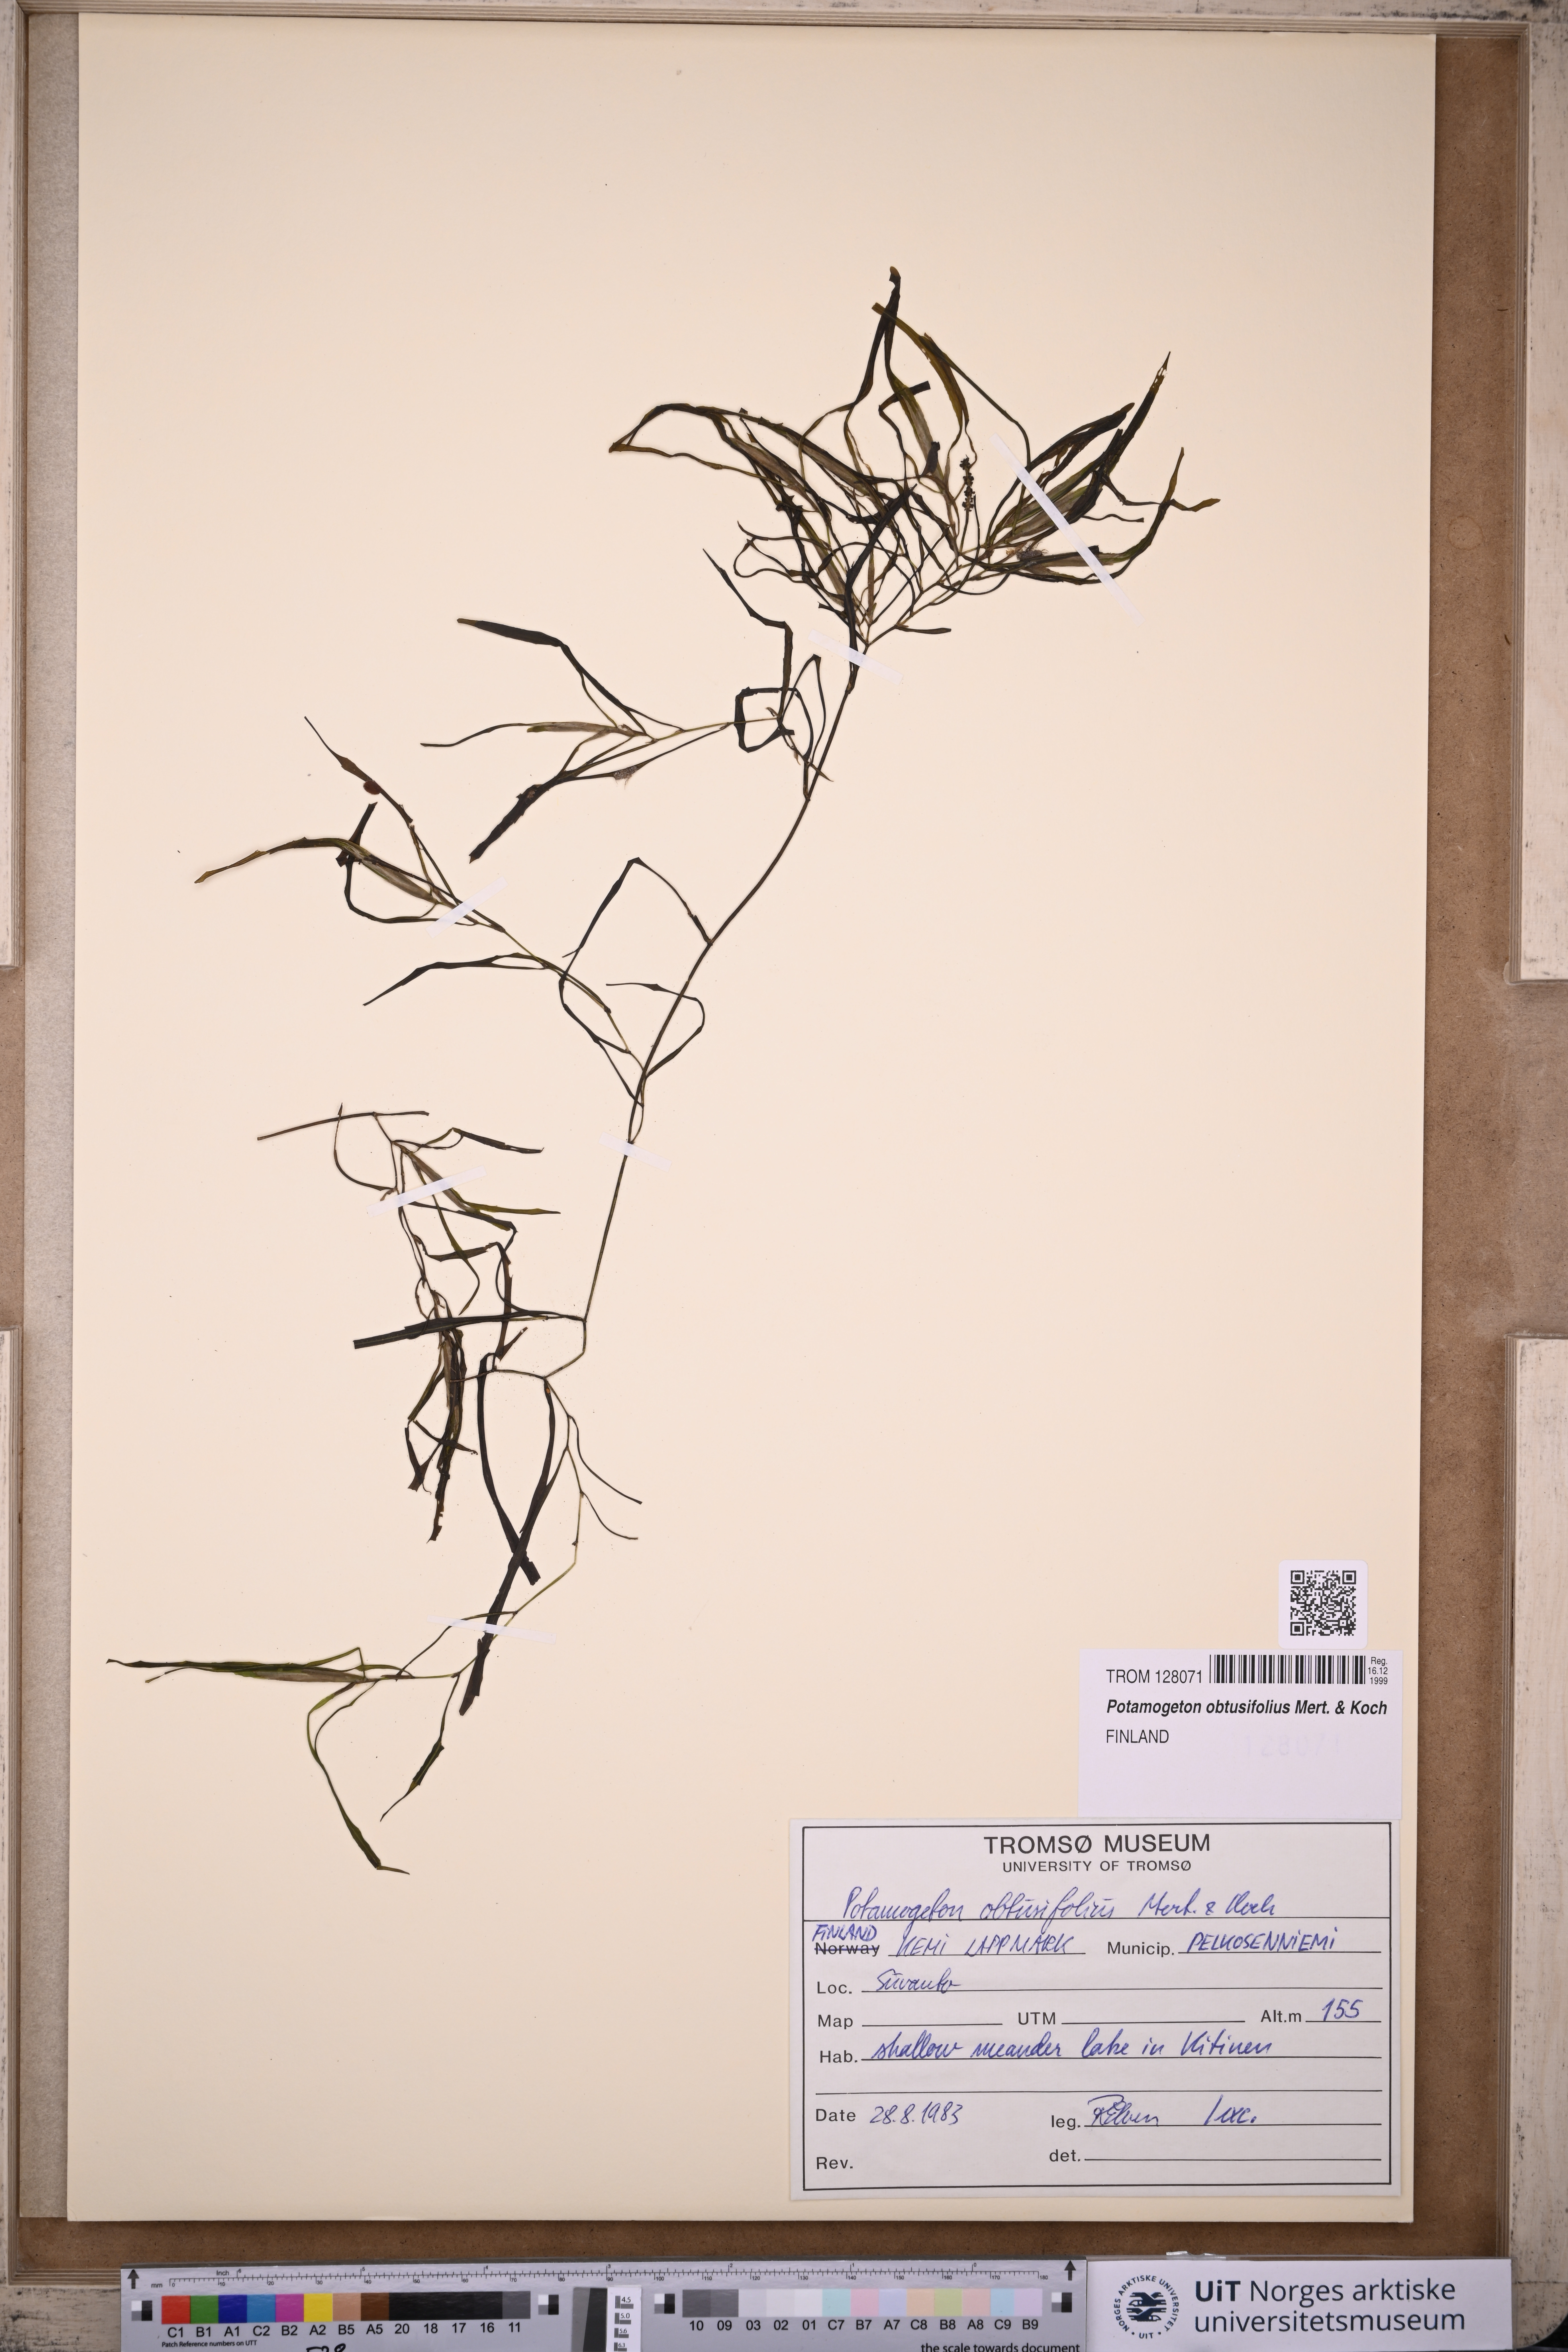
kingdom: Plantae
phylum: Tracheophyta
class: Liliopsida
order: Alismatales
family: Potamogetonaceae
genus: Potamogeton
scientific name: Potamogeton obtusifolius
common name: Blunt-leaved pondweed
